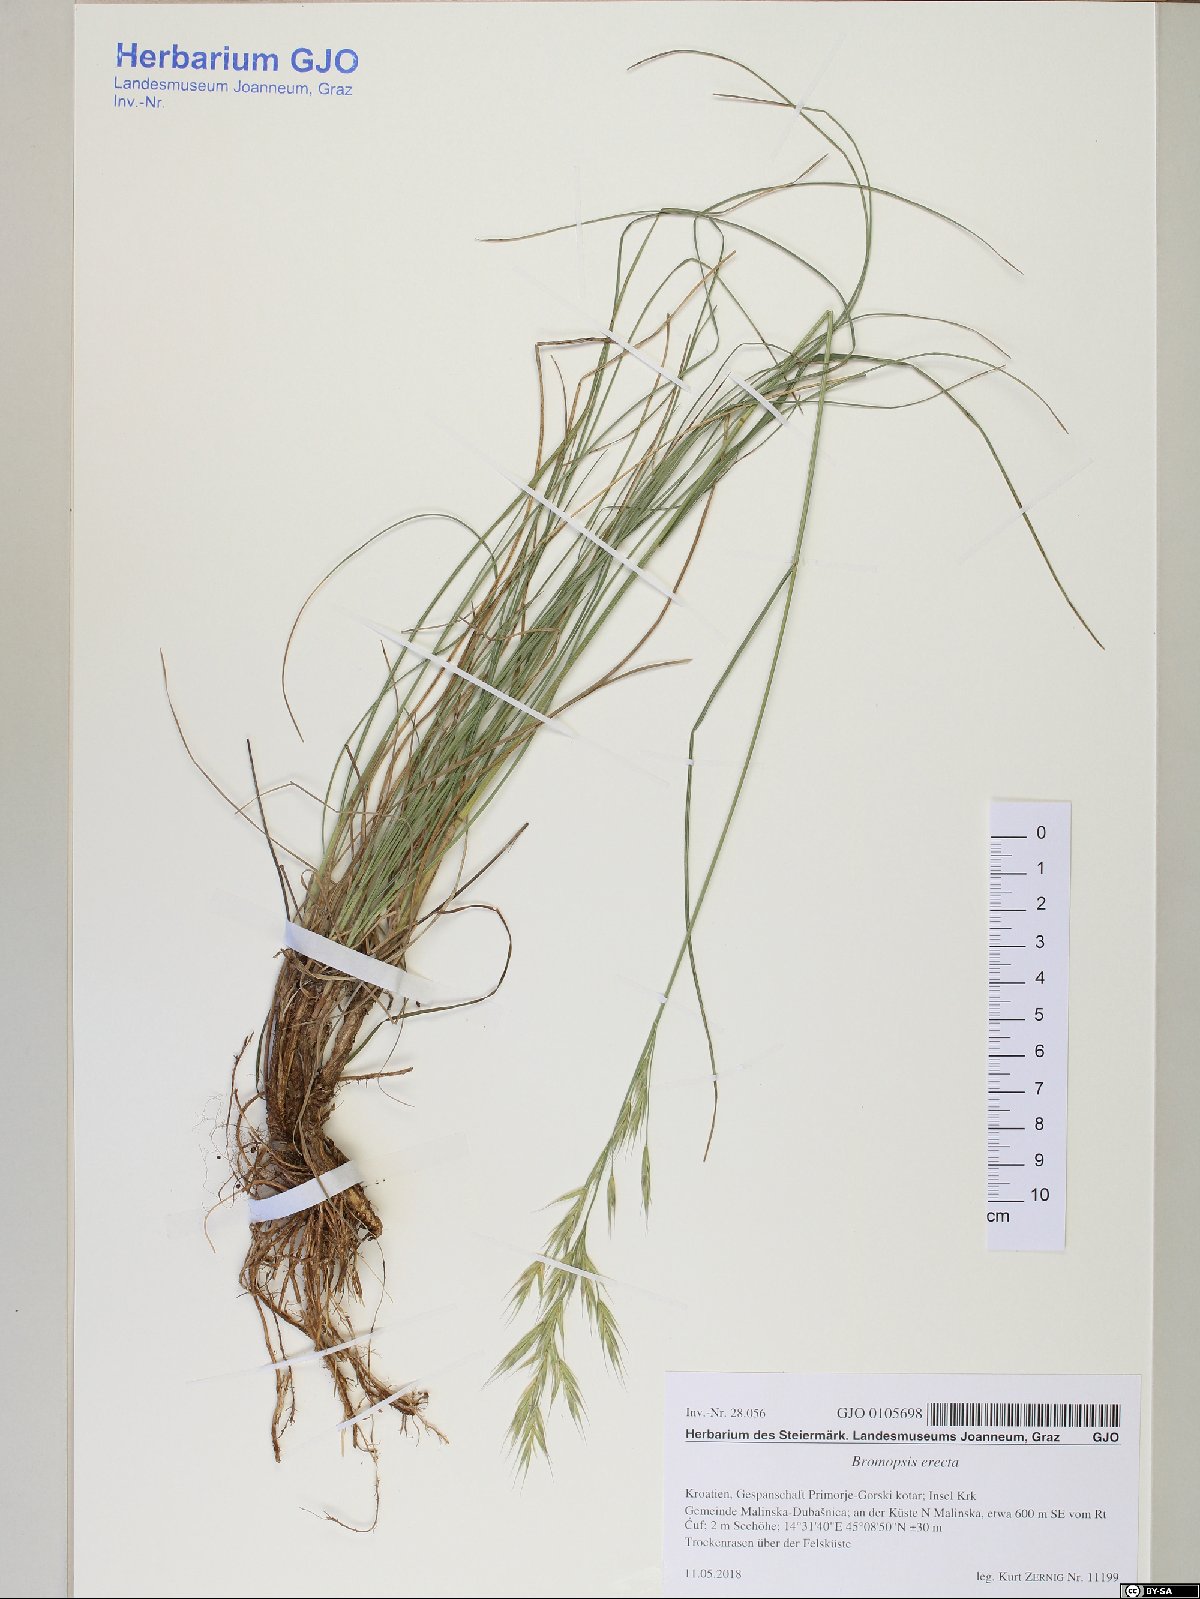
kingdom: Plantae
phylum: Tracheophyta
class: Liliopsida
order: Poales
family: Poaceae
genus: Bromus
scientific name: Bromus erectus
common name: Erect brome
